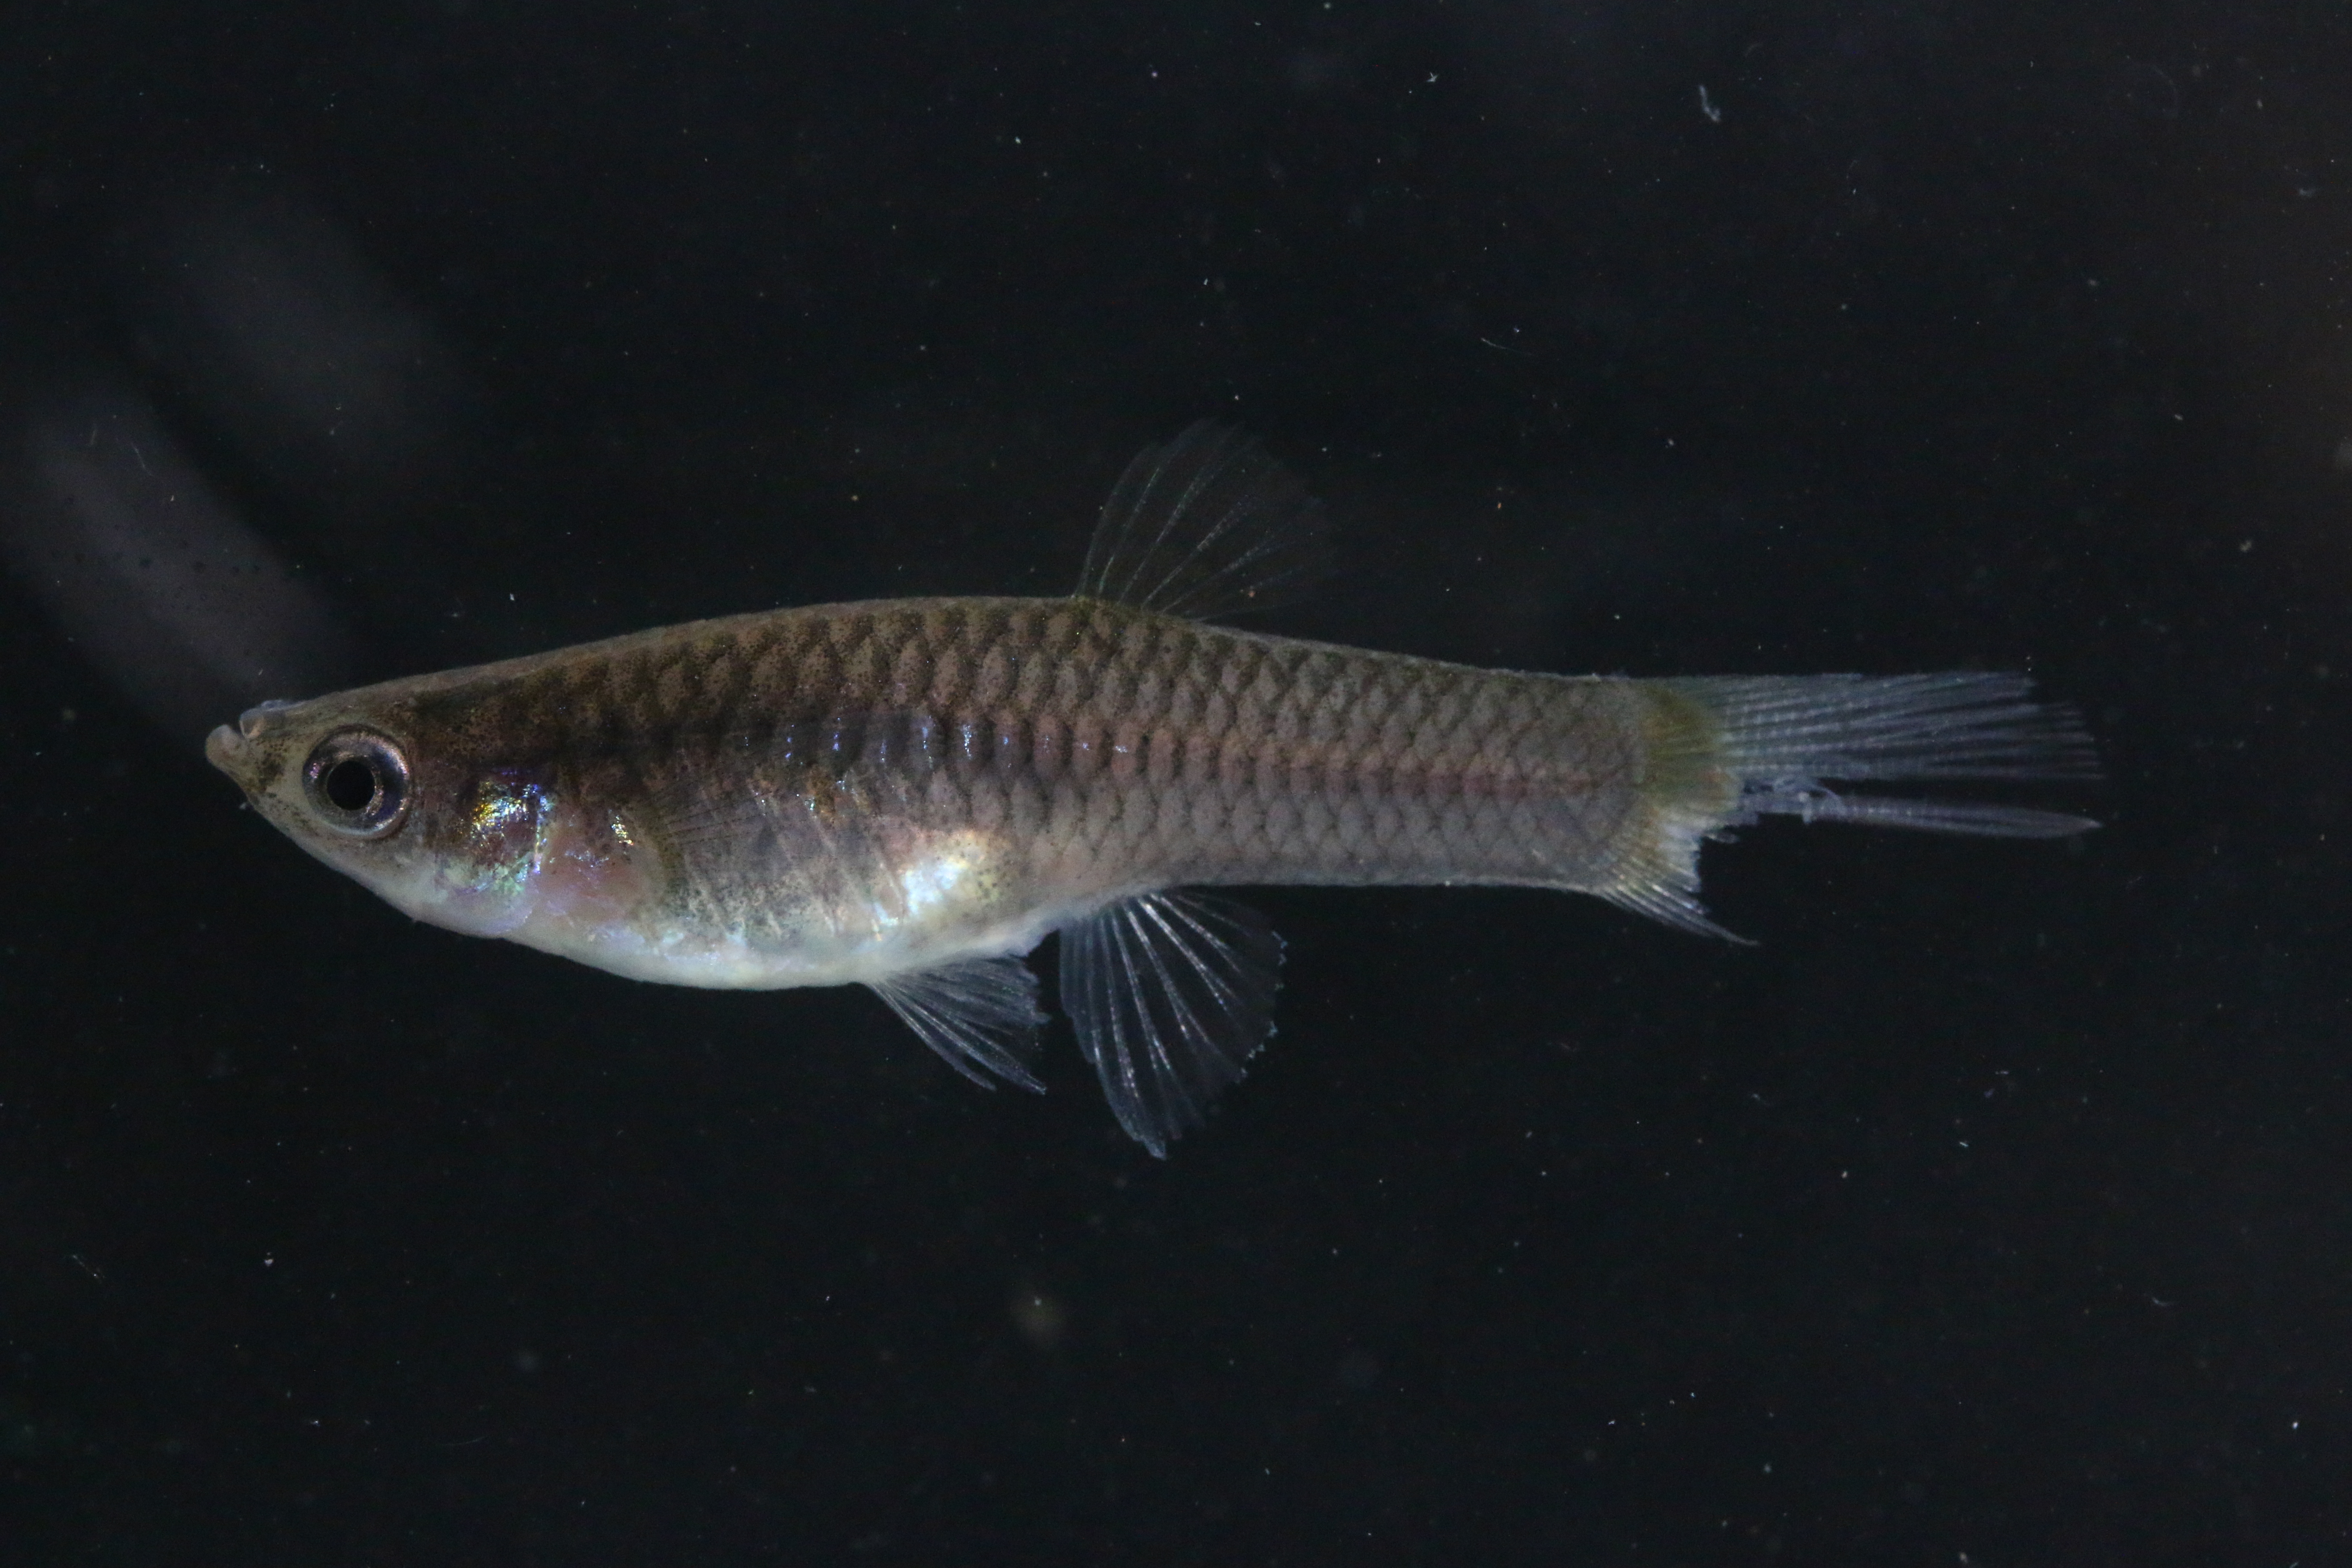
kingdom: Animalia
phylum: Chordata
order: Cyprinodontiformes
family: Poeciliidae
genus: Poecilia
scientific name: Poecilia reticulata
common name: Guppy
